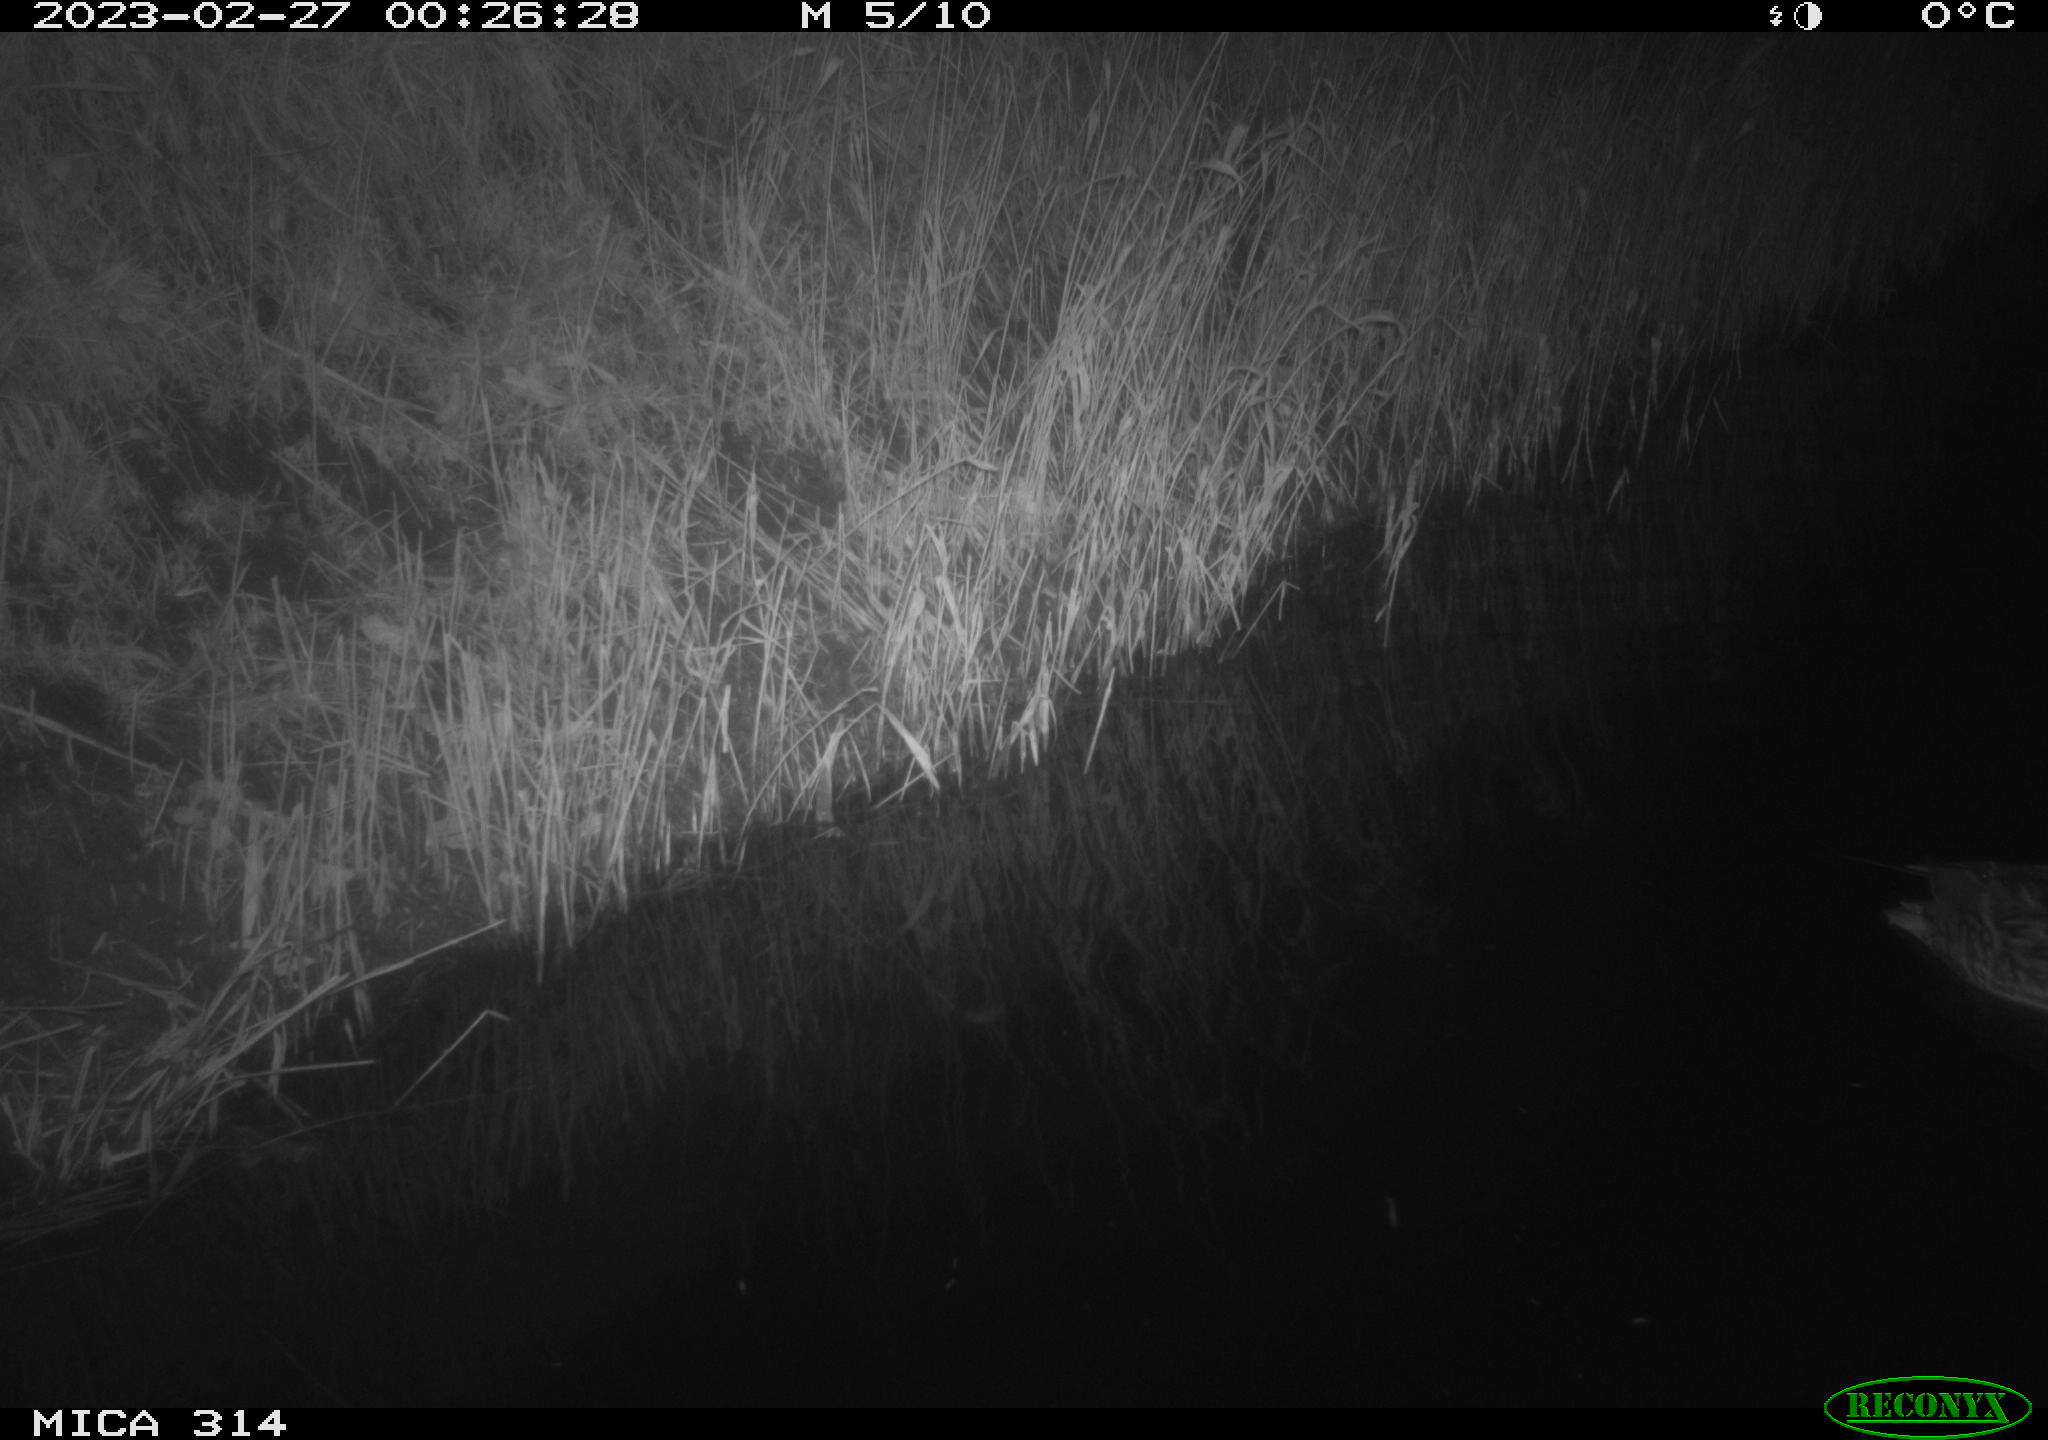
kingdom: Animalia
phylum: Chordata
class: Aves
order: Anseriformes
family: Anatidae
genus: Anas
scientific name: Anas
